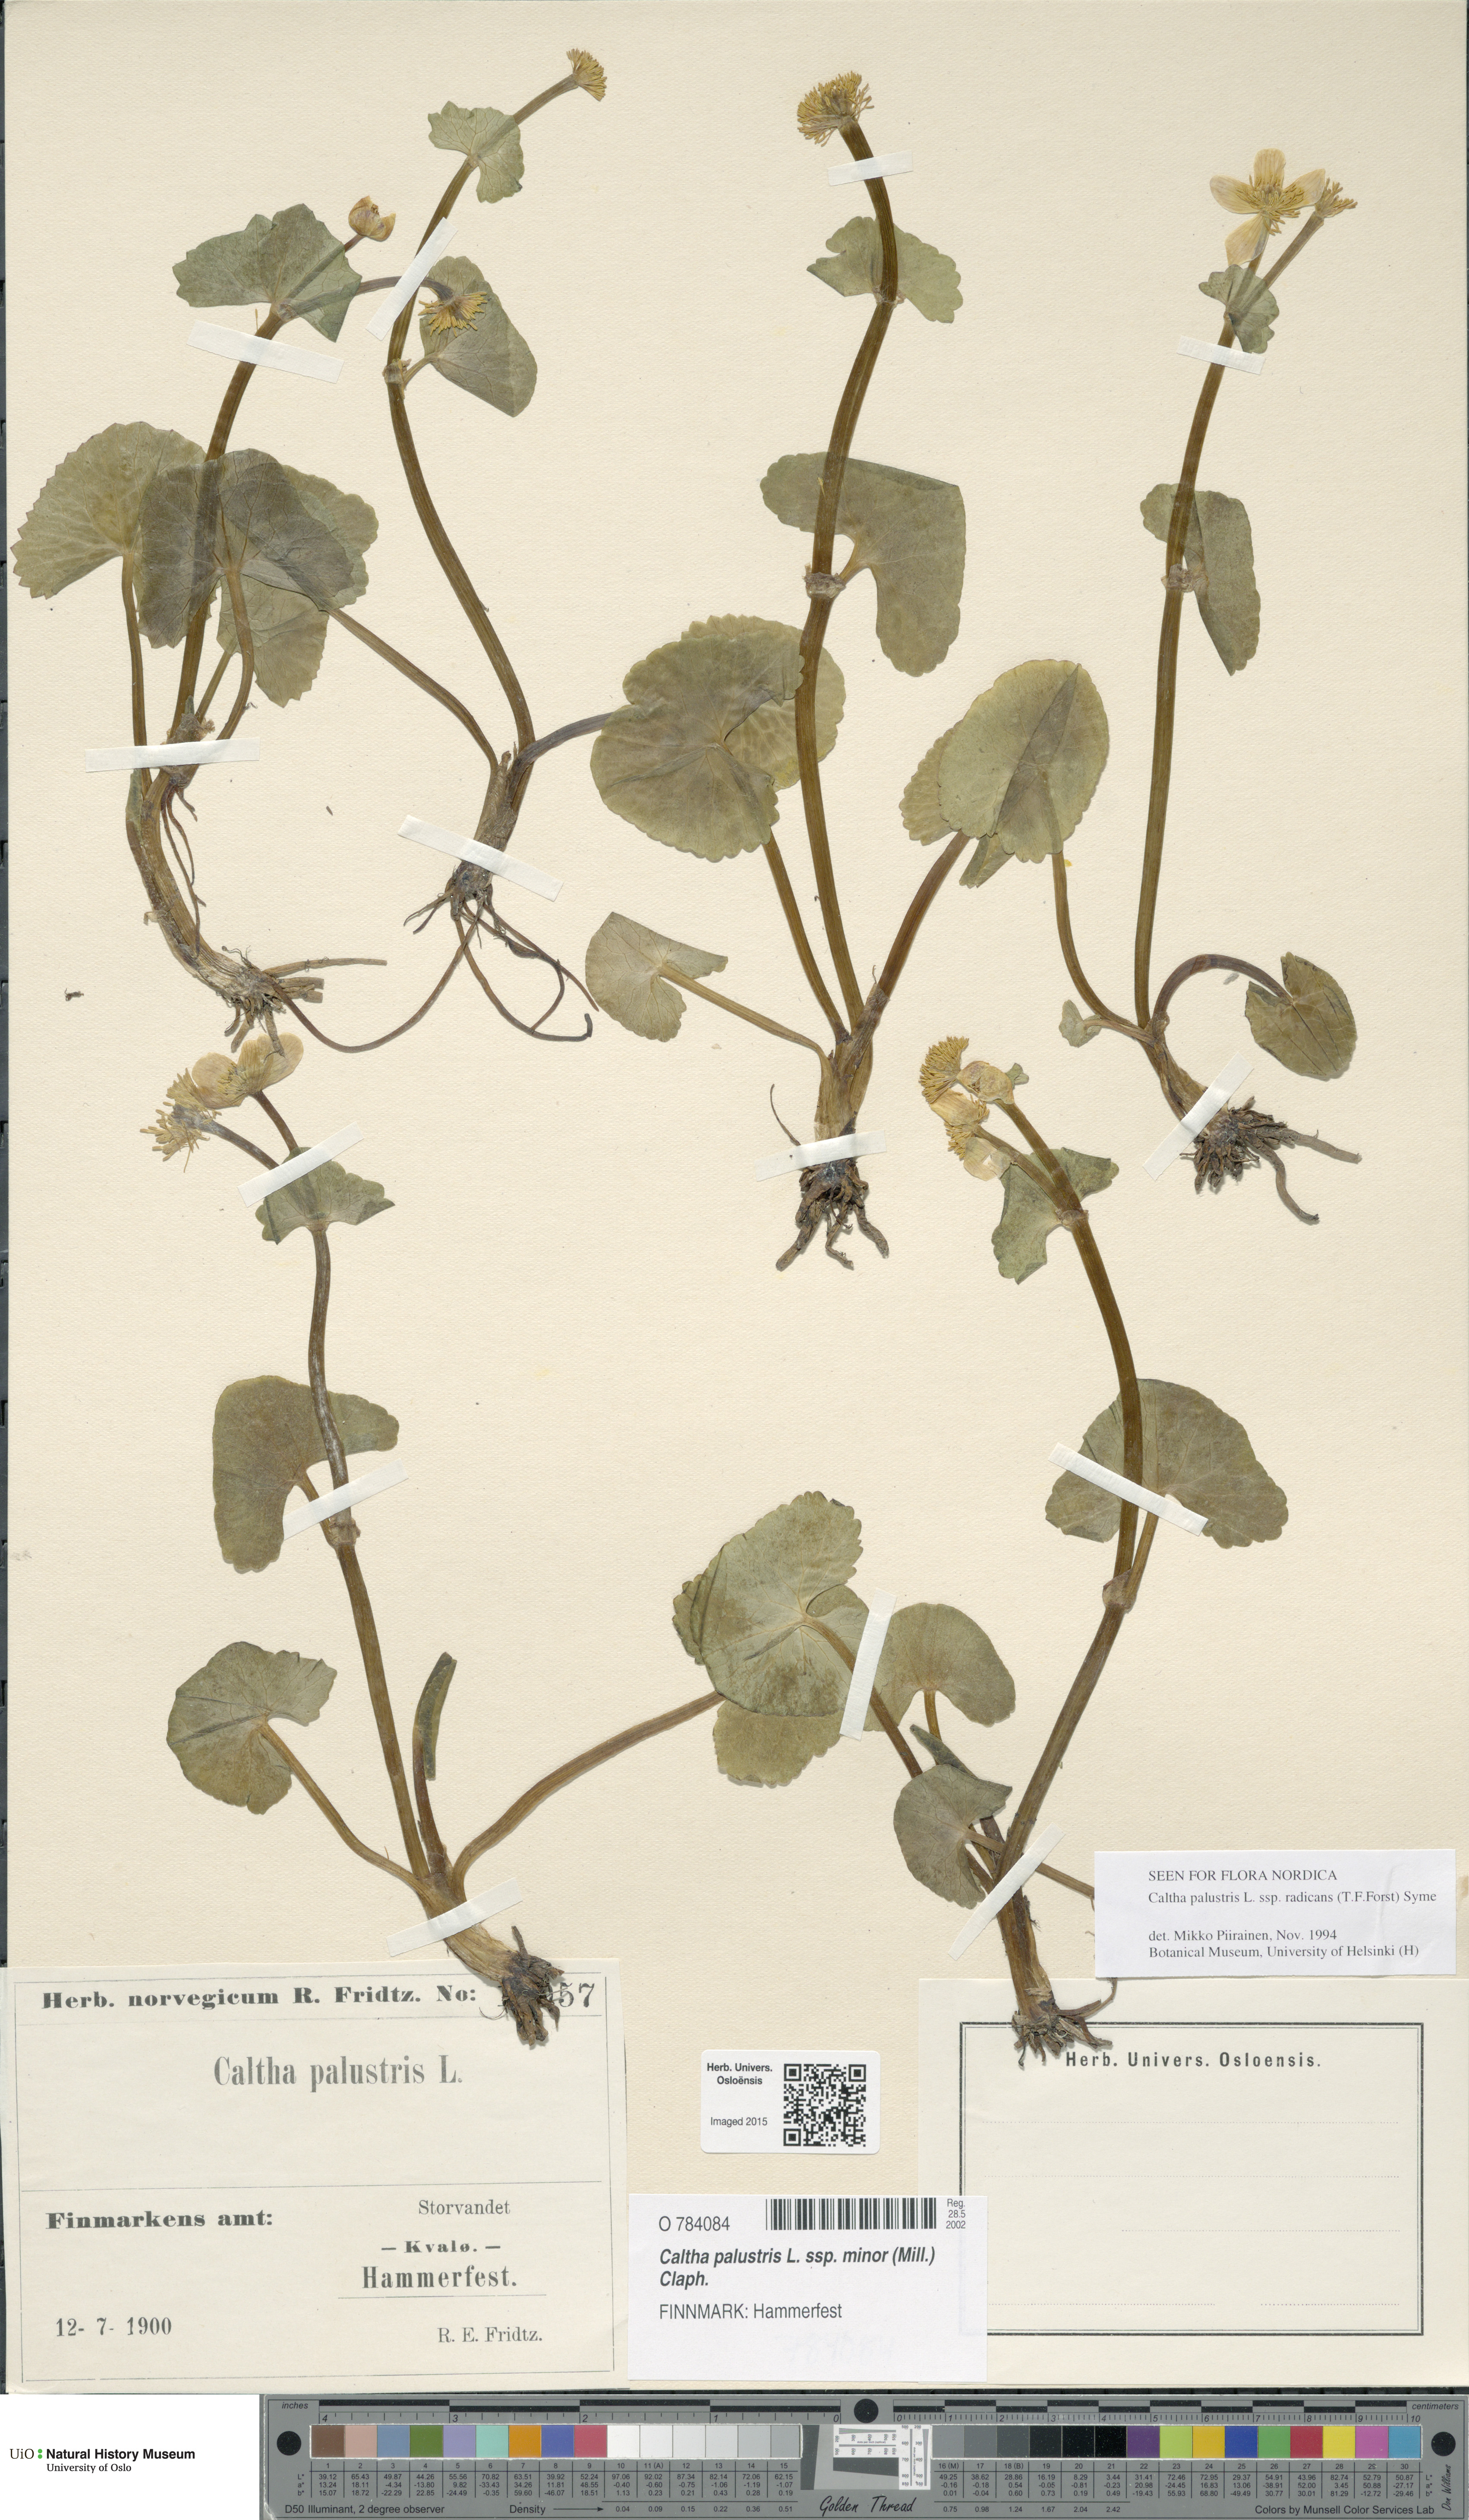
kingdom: Plantae
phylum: Tracheophyta
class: Magnoliopsida
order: Ranunculales
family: Ranunculaceae
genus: Caltha
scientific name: Caltha palustris
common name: Marsh marigold
